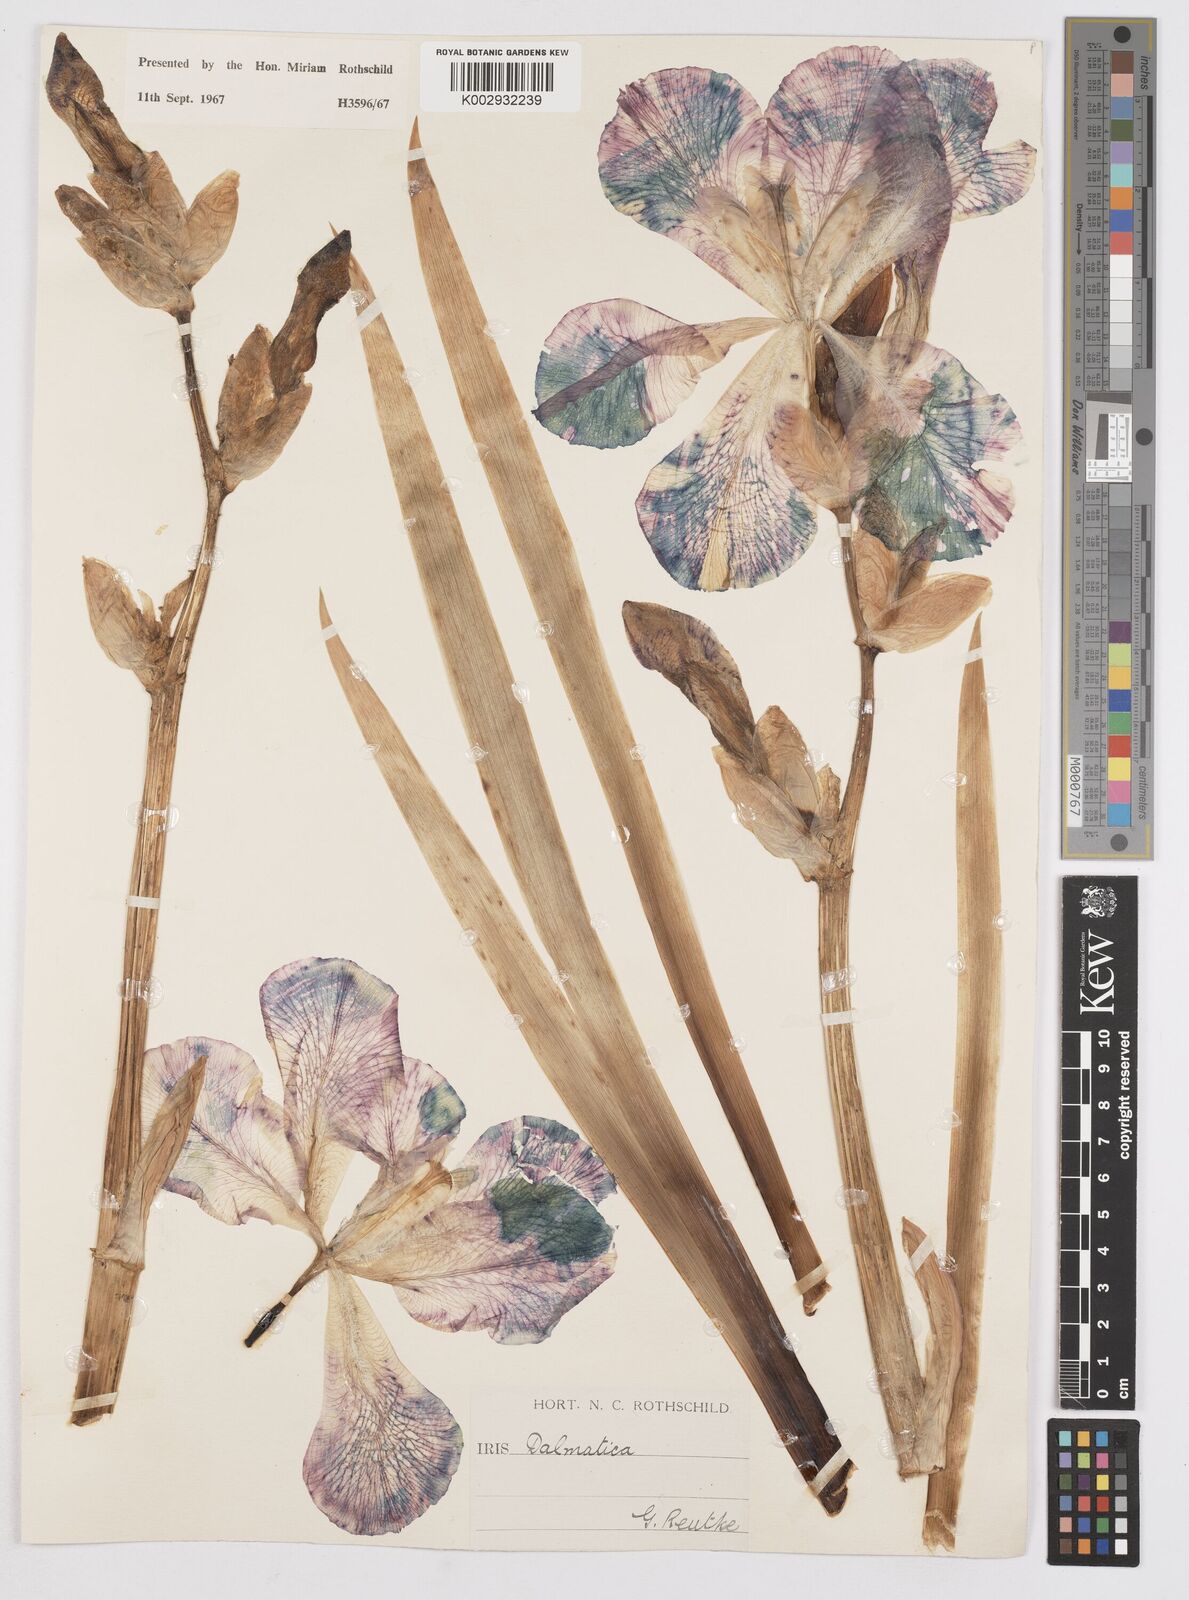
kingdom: Plantae
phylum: Tracheophyta
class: Liliopsida
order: Asparagales
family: Iridaceae
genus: Iris
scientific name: Iris pallida
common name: Sweet iris
